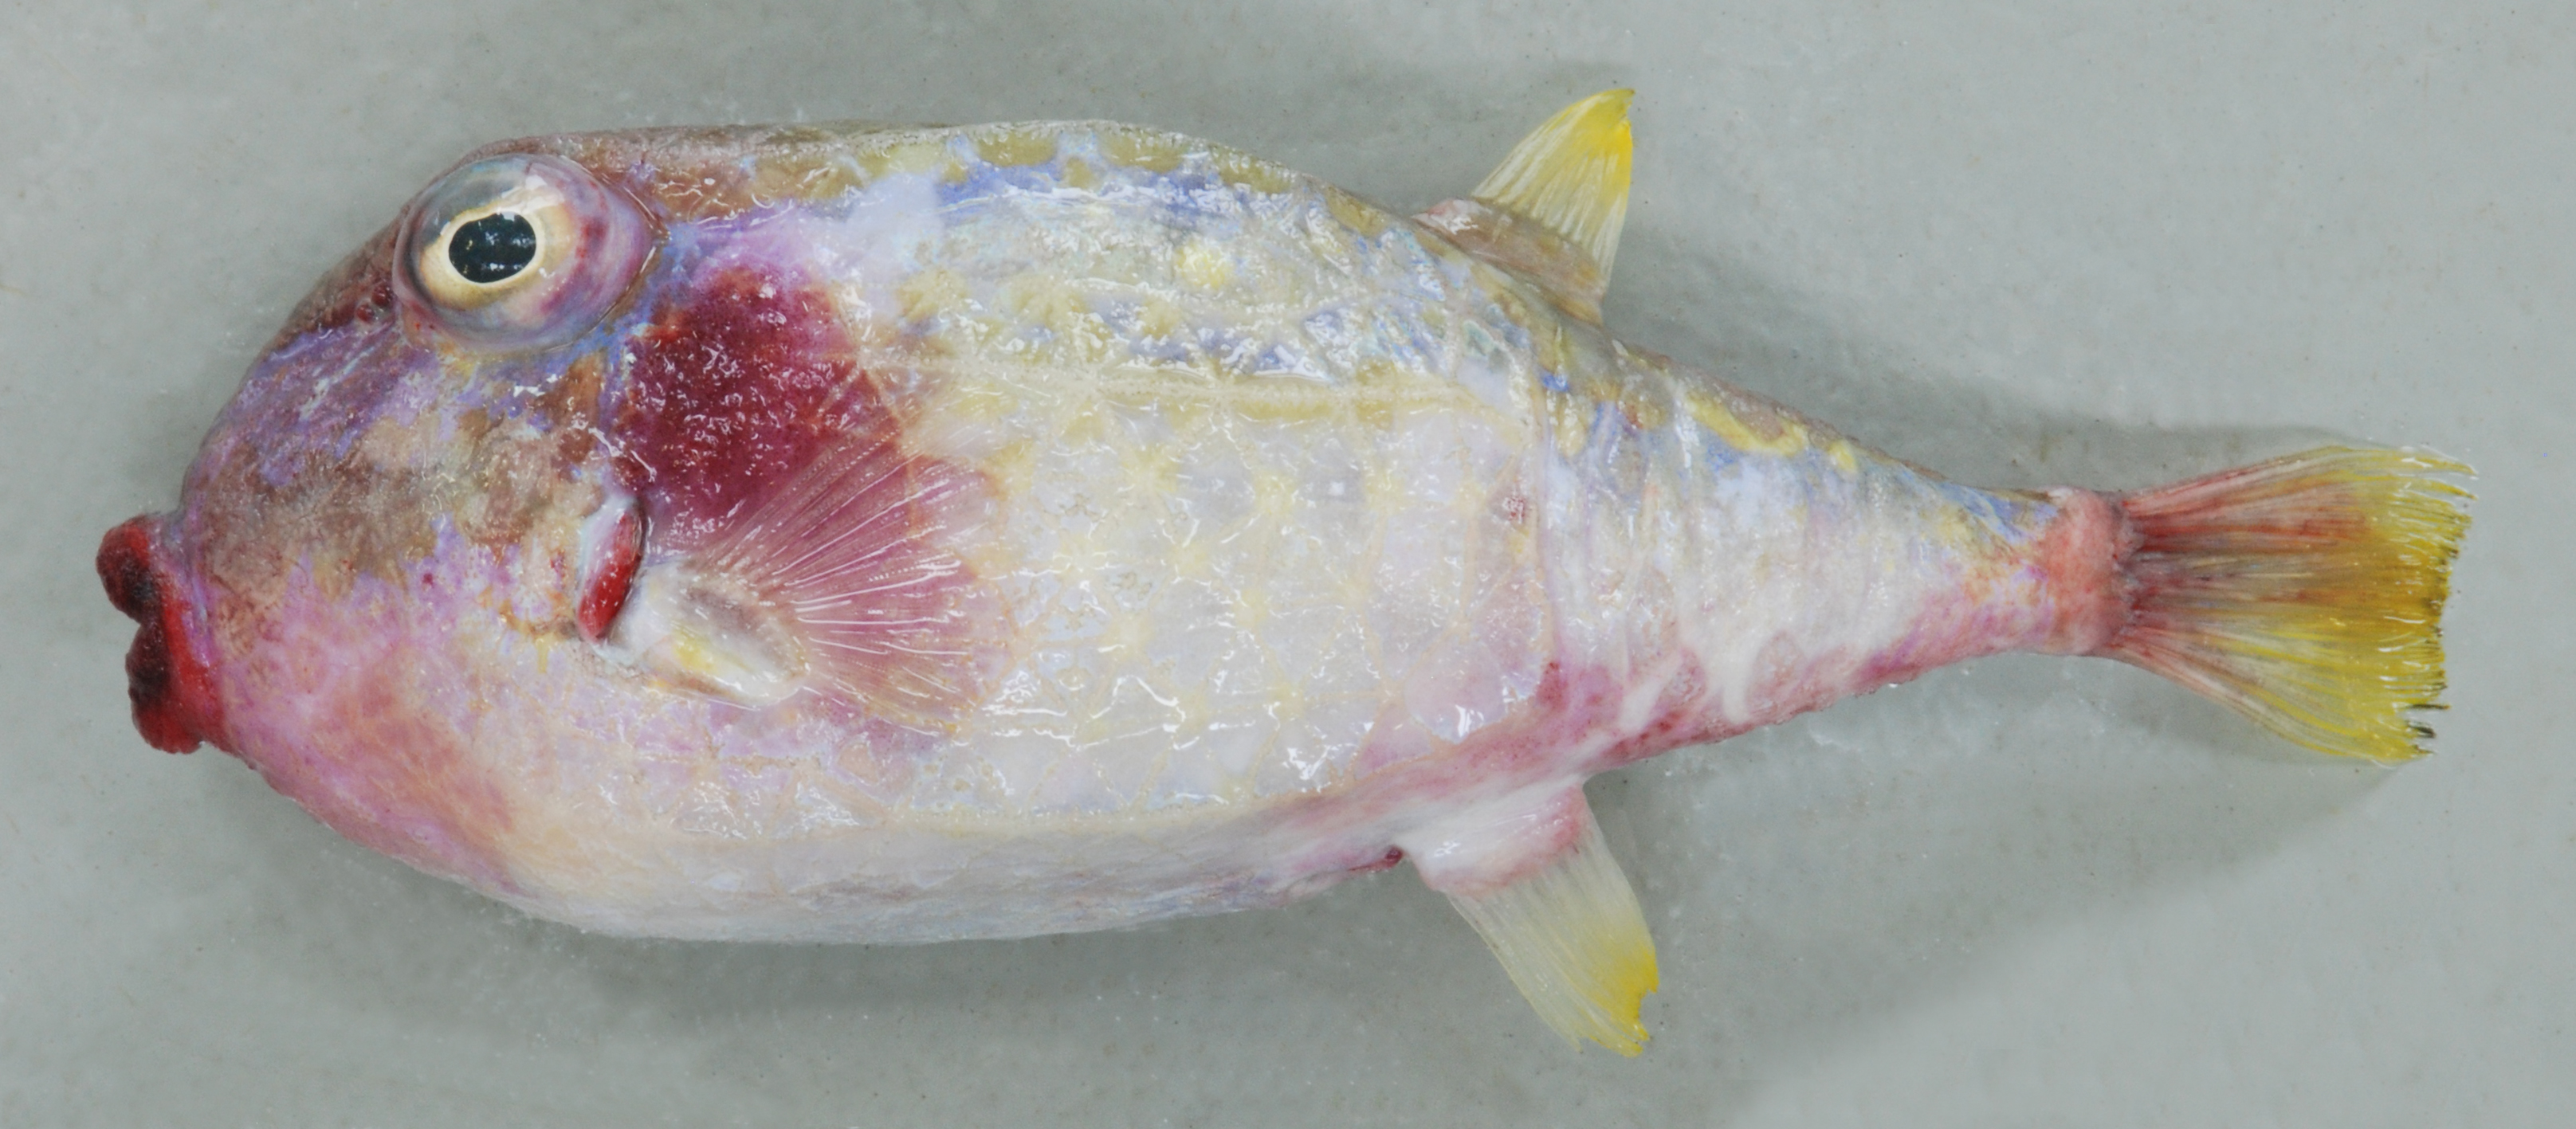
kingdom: Animalia
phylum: Chordata
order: Tetraodontiformes
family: Aracanidae
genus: Kentrocapros
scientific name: Kentrocapros rosapinto
